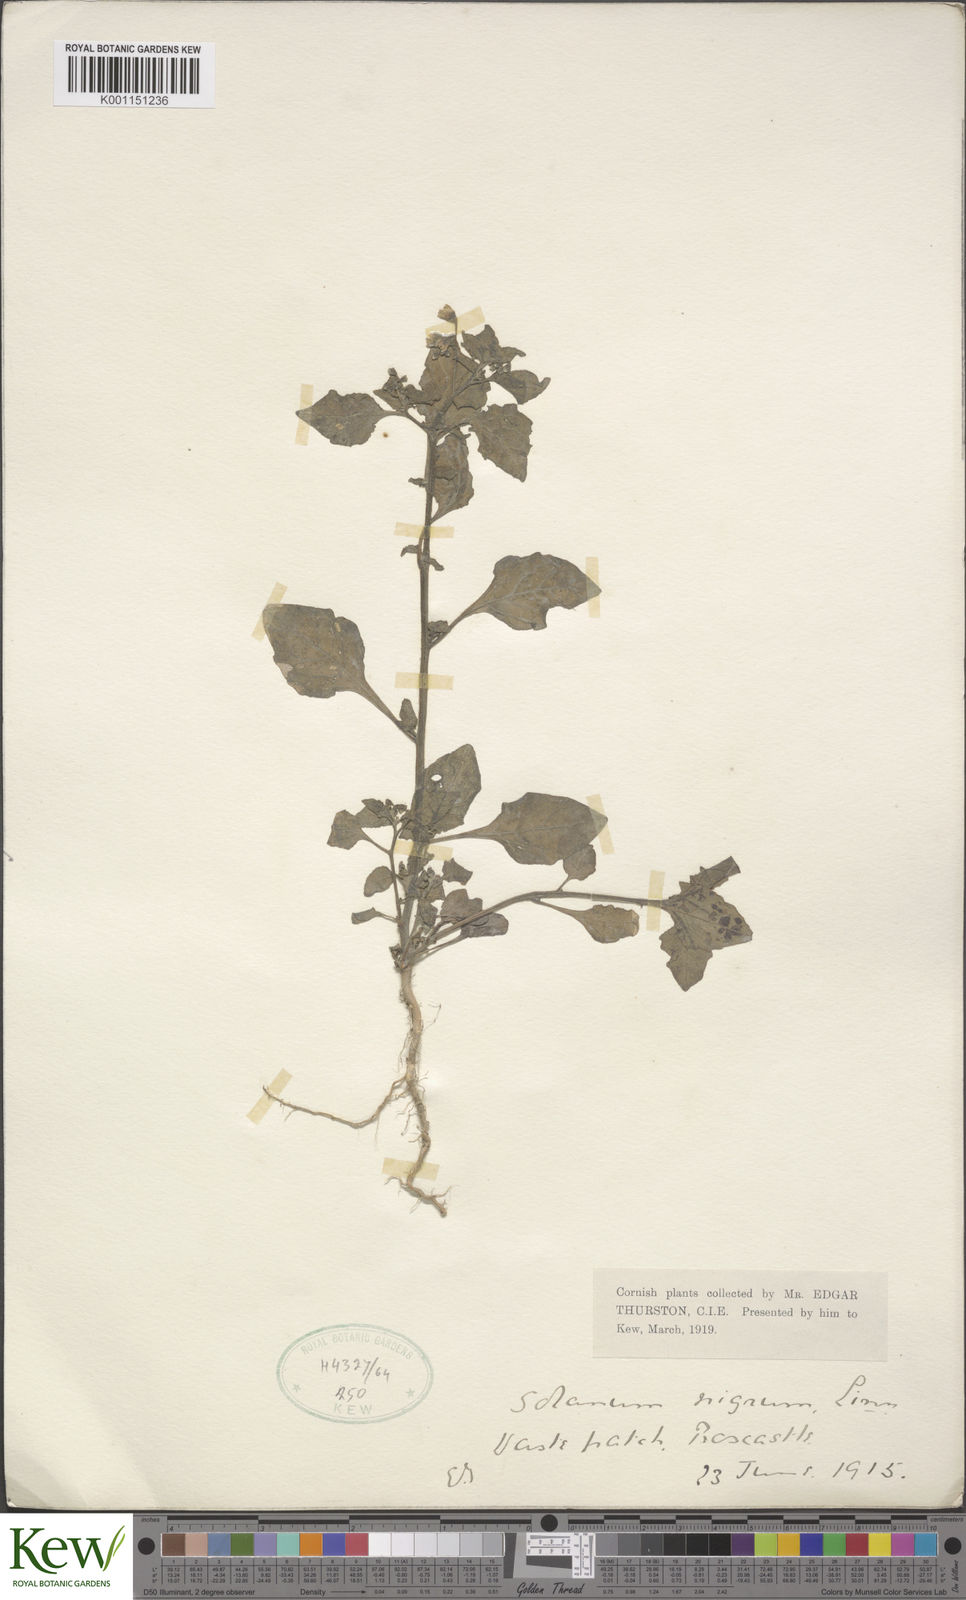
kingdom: Plantae
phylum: Tracheophyta
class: Magnoliopsida
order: Solanales
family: Solanaceae
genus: Solanum
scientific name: Solanum nigrum
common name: Black nightshade
